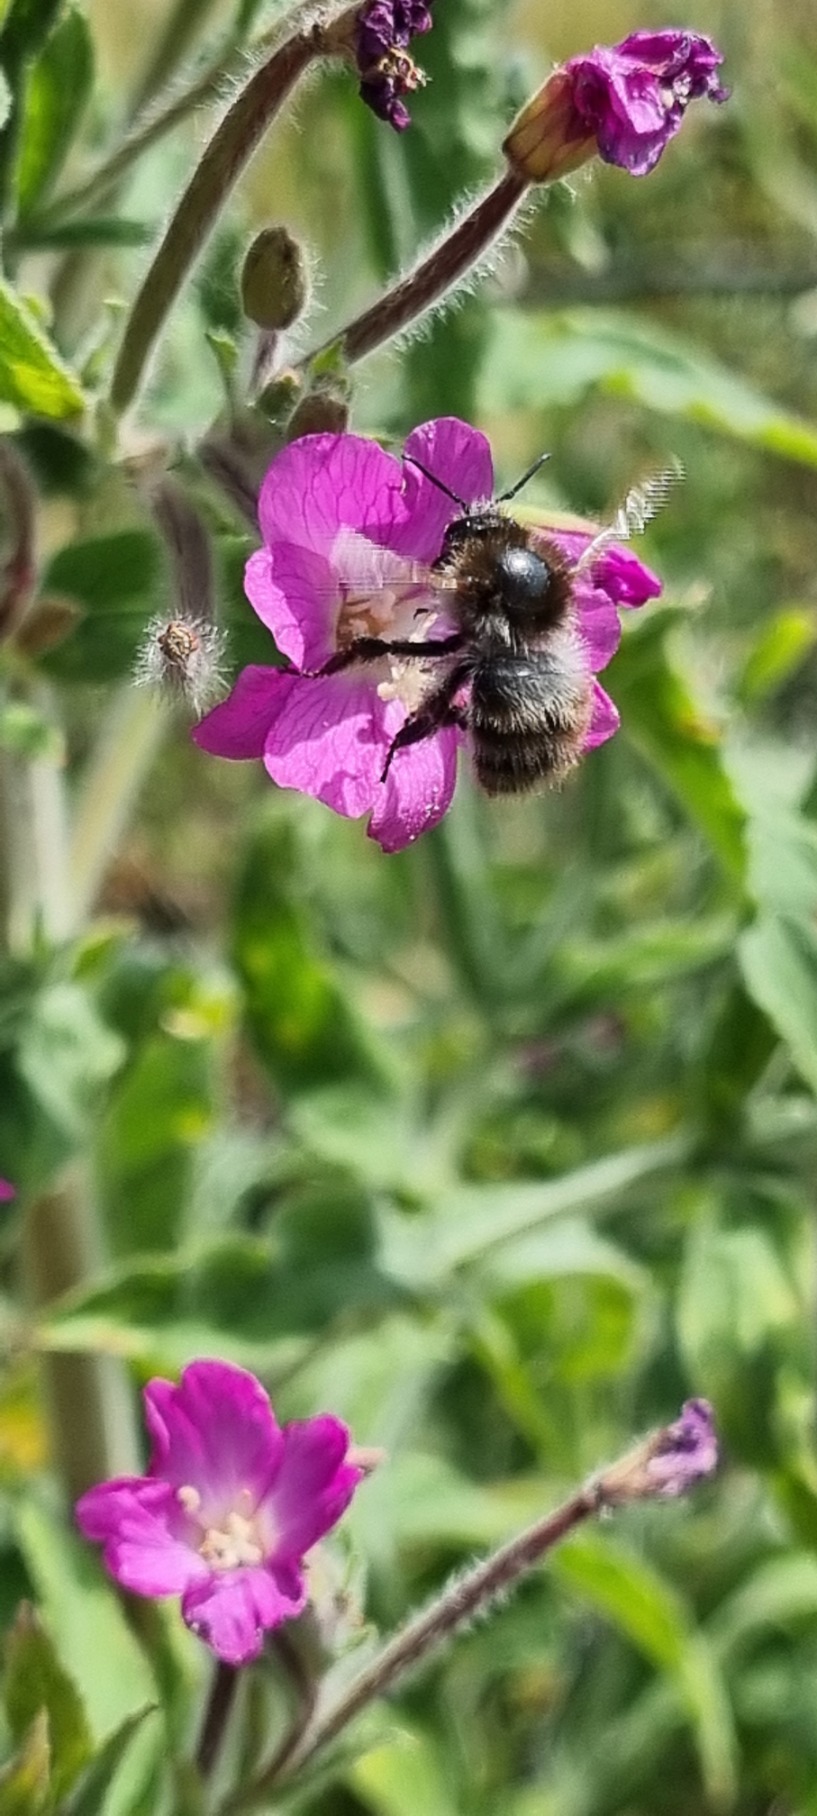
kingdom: Plantae
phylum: Tracheophyta
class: Magnoliopsida
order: Myrtales
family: Onagraceae
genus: Epilobium
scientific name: Epilobium hirsutum
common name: Lådden dueurt
